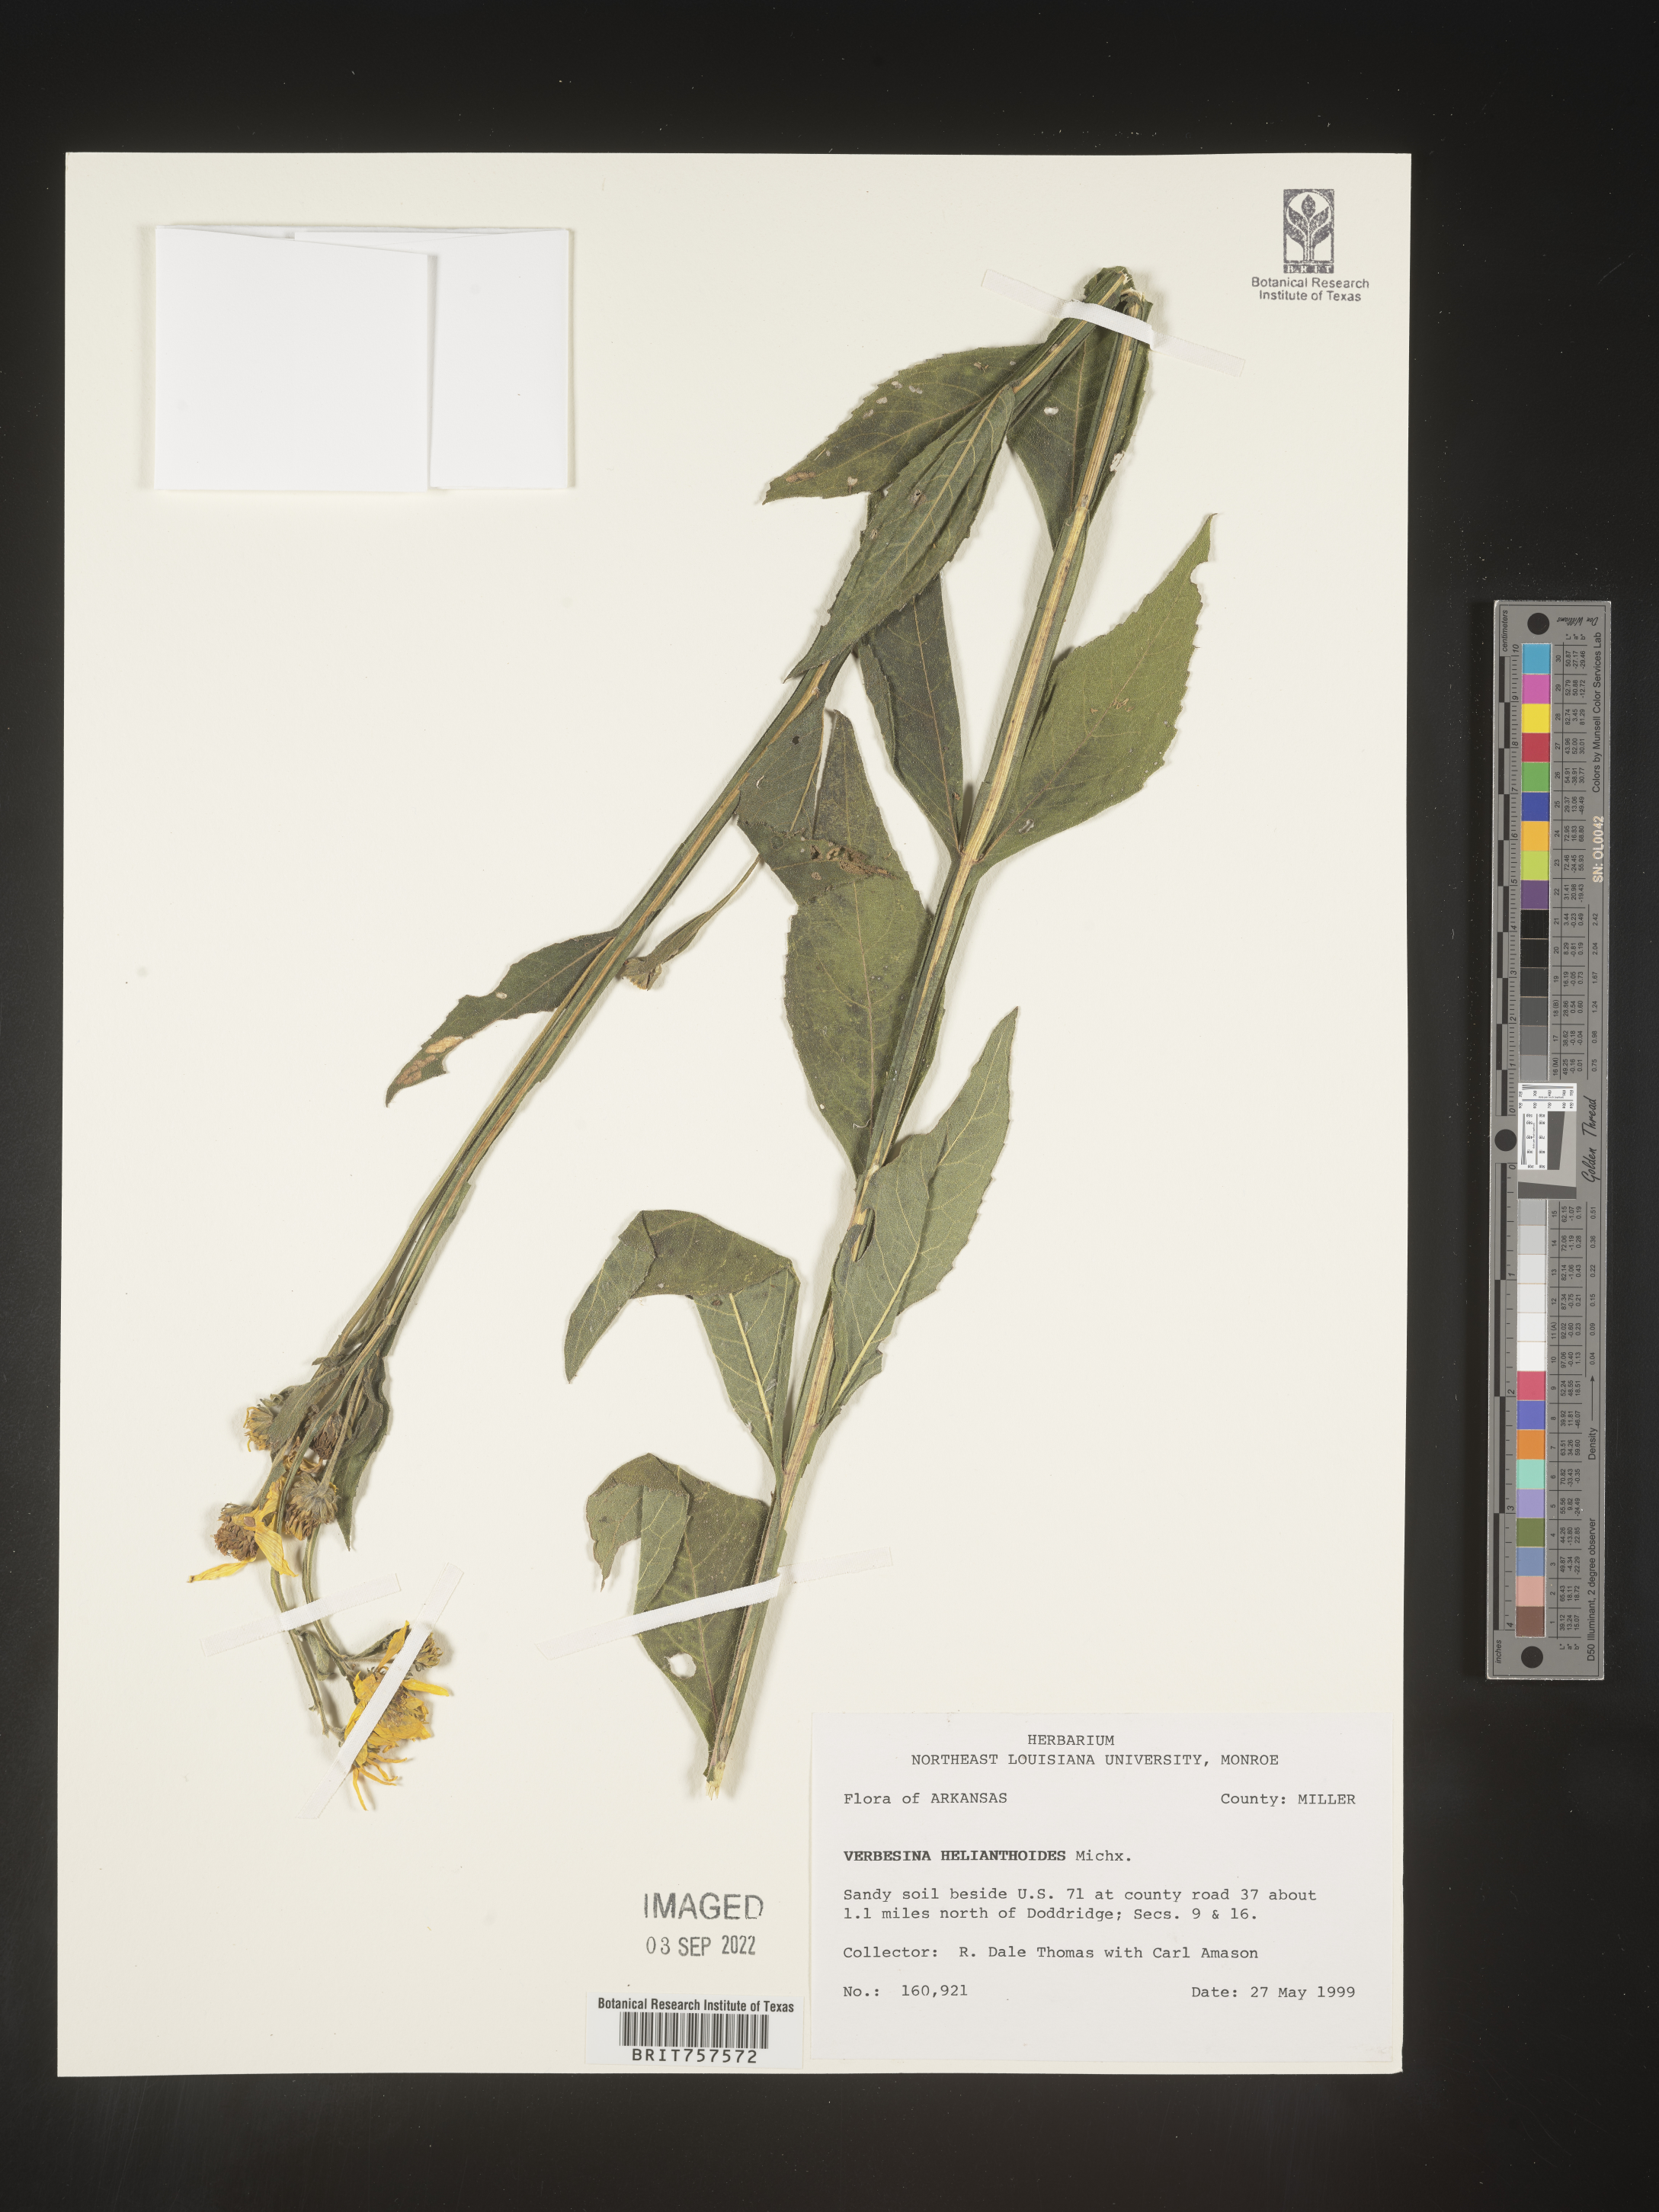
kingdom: Plantae
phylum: Tracheophyta
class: Magnoliopsida
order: Asterales
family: Asteraceae
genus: Verbesina
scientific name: Verbesina helianthoides
